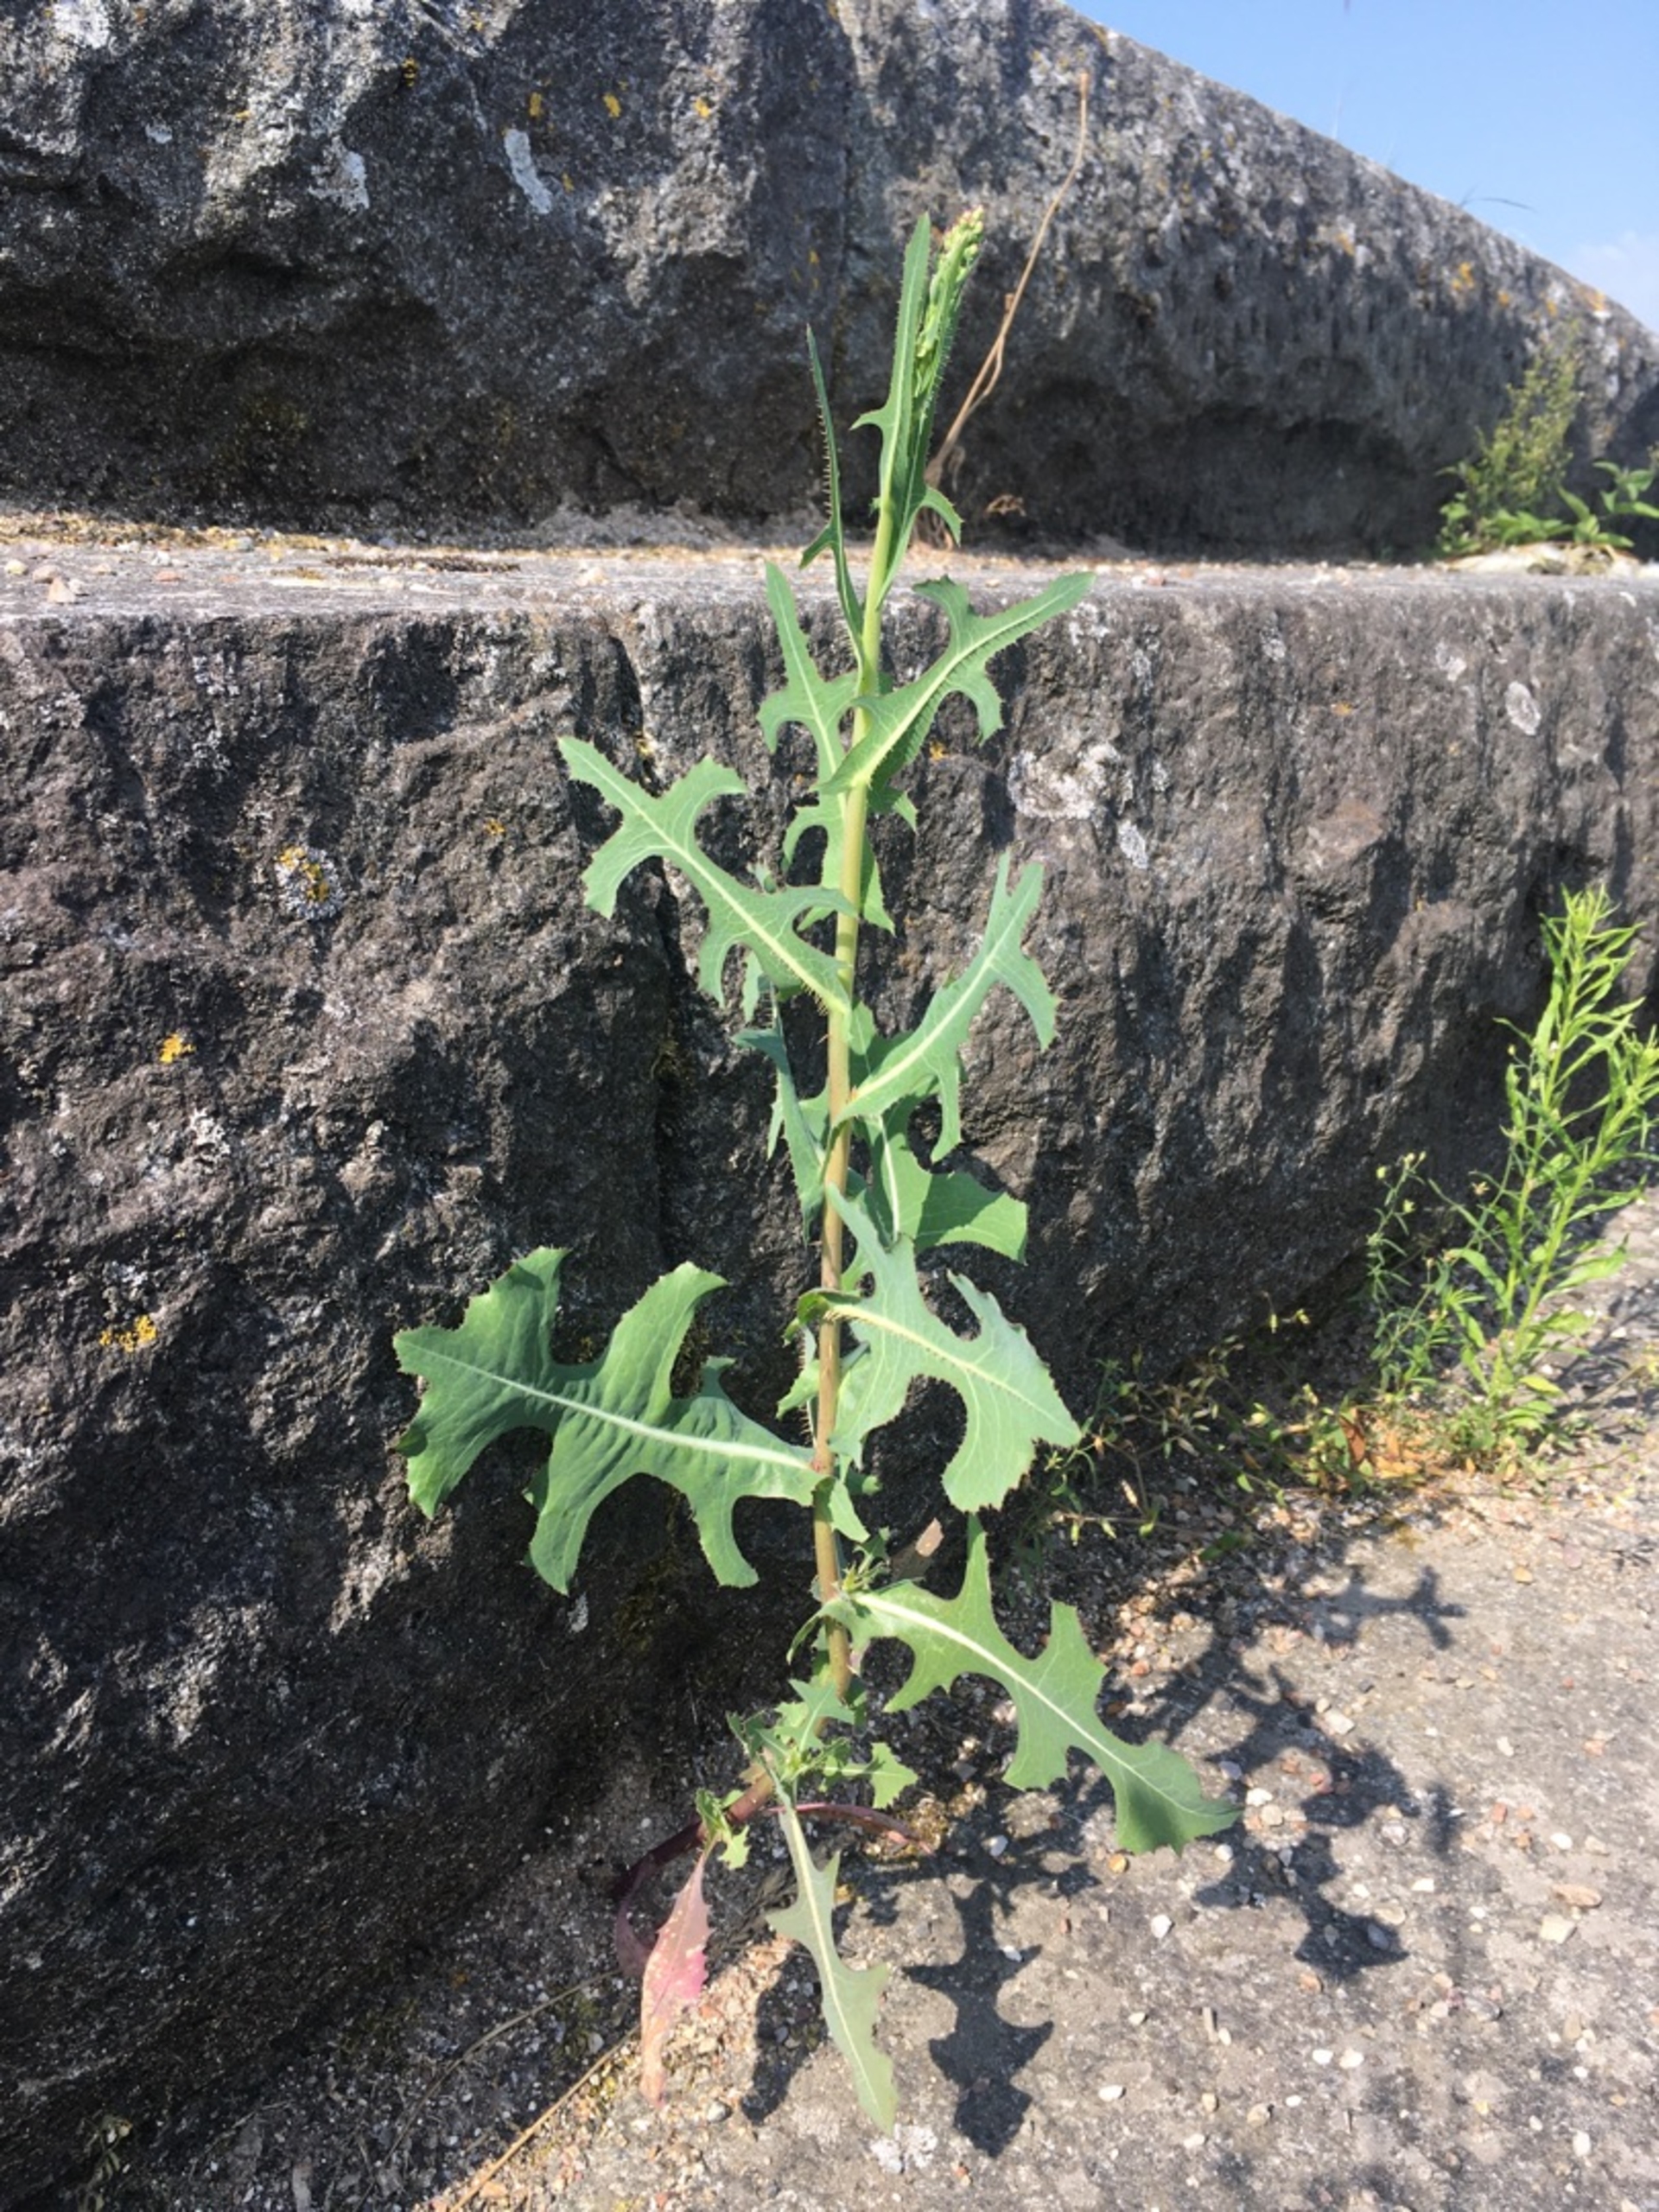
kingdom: Plantae
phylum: Tracheophyta
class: Magnoliopsida
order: Asterales
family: Asteraceae
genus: Lactuca
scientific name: Lactuca serriola
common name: Tornet salat
